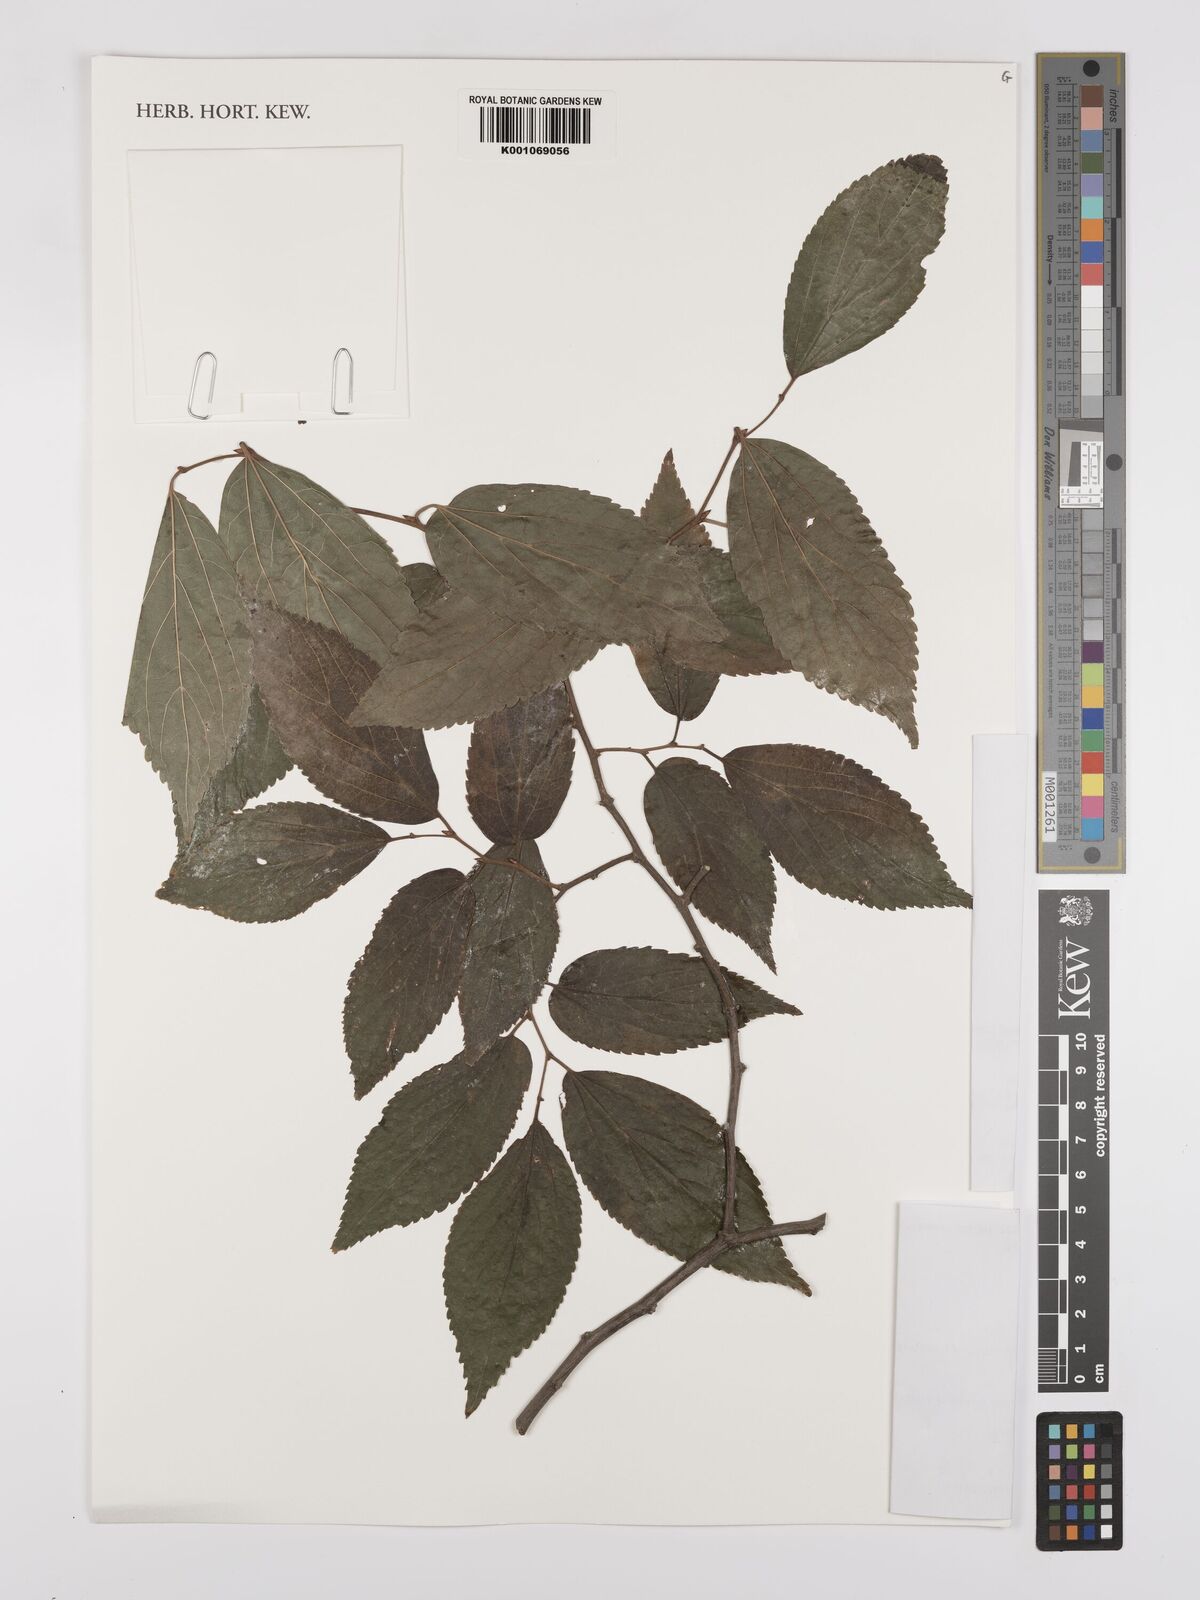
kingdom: Plantae
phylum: Tracheophyta
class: Magnoliopsida
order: Rosales
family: Cannabaceae
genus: Celtis
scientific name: Celtis vandervoetiana
